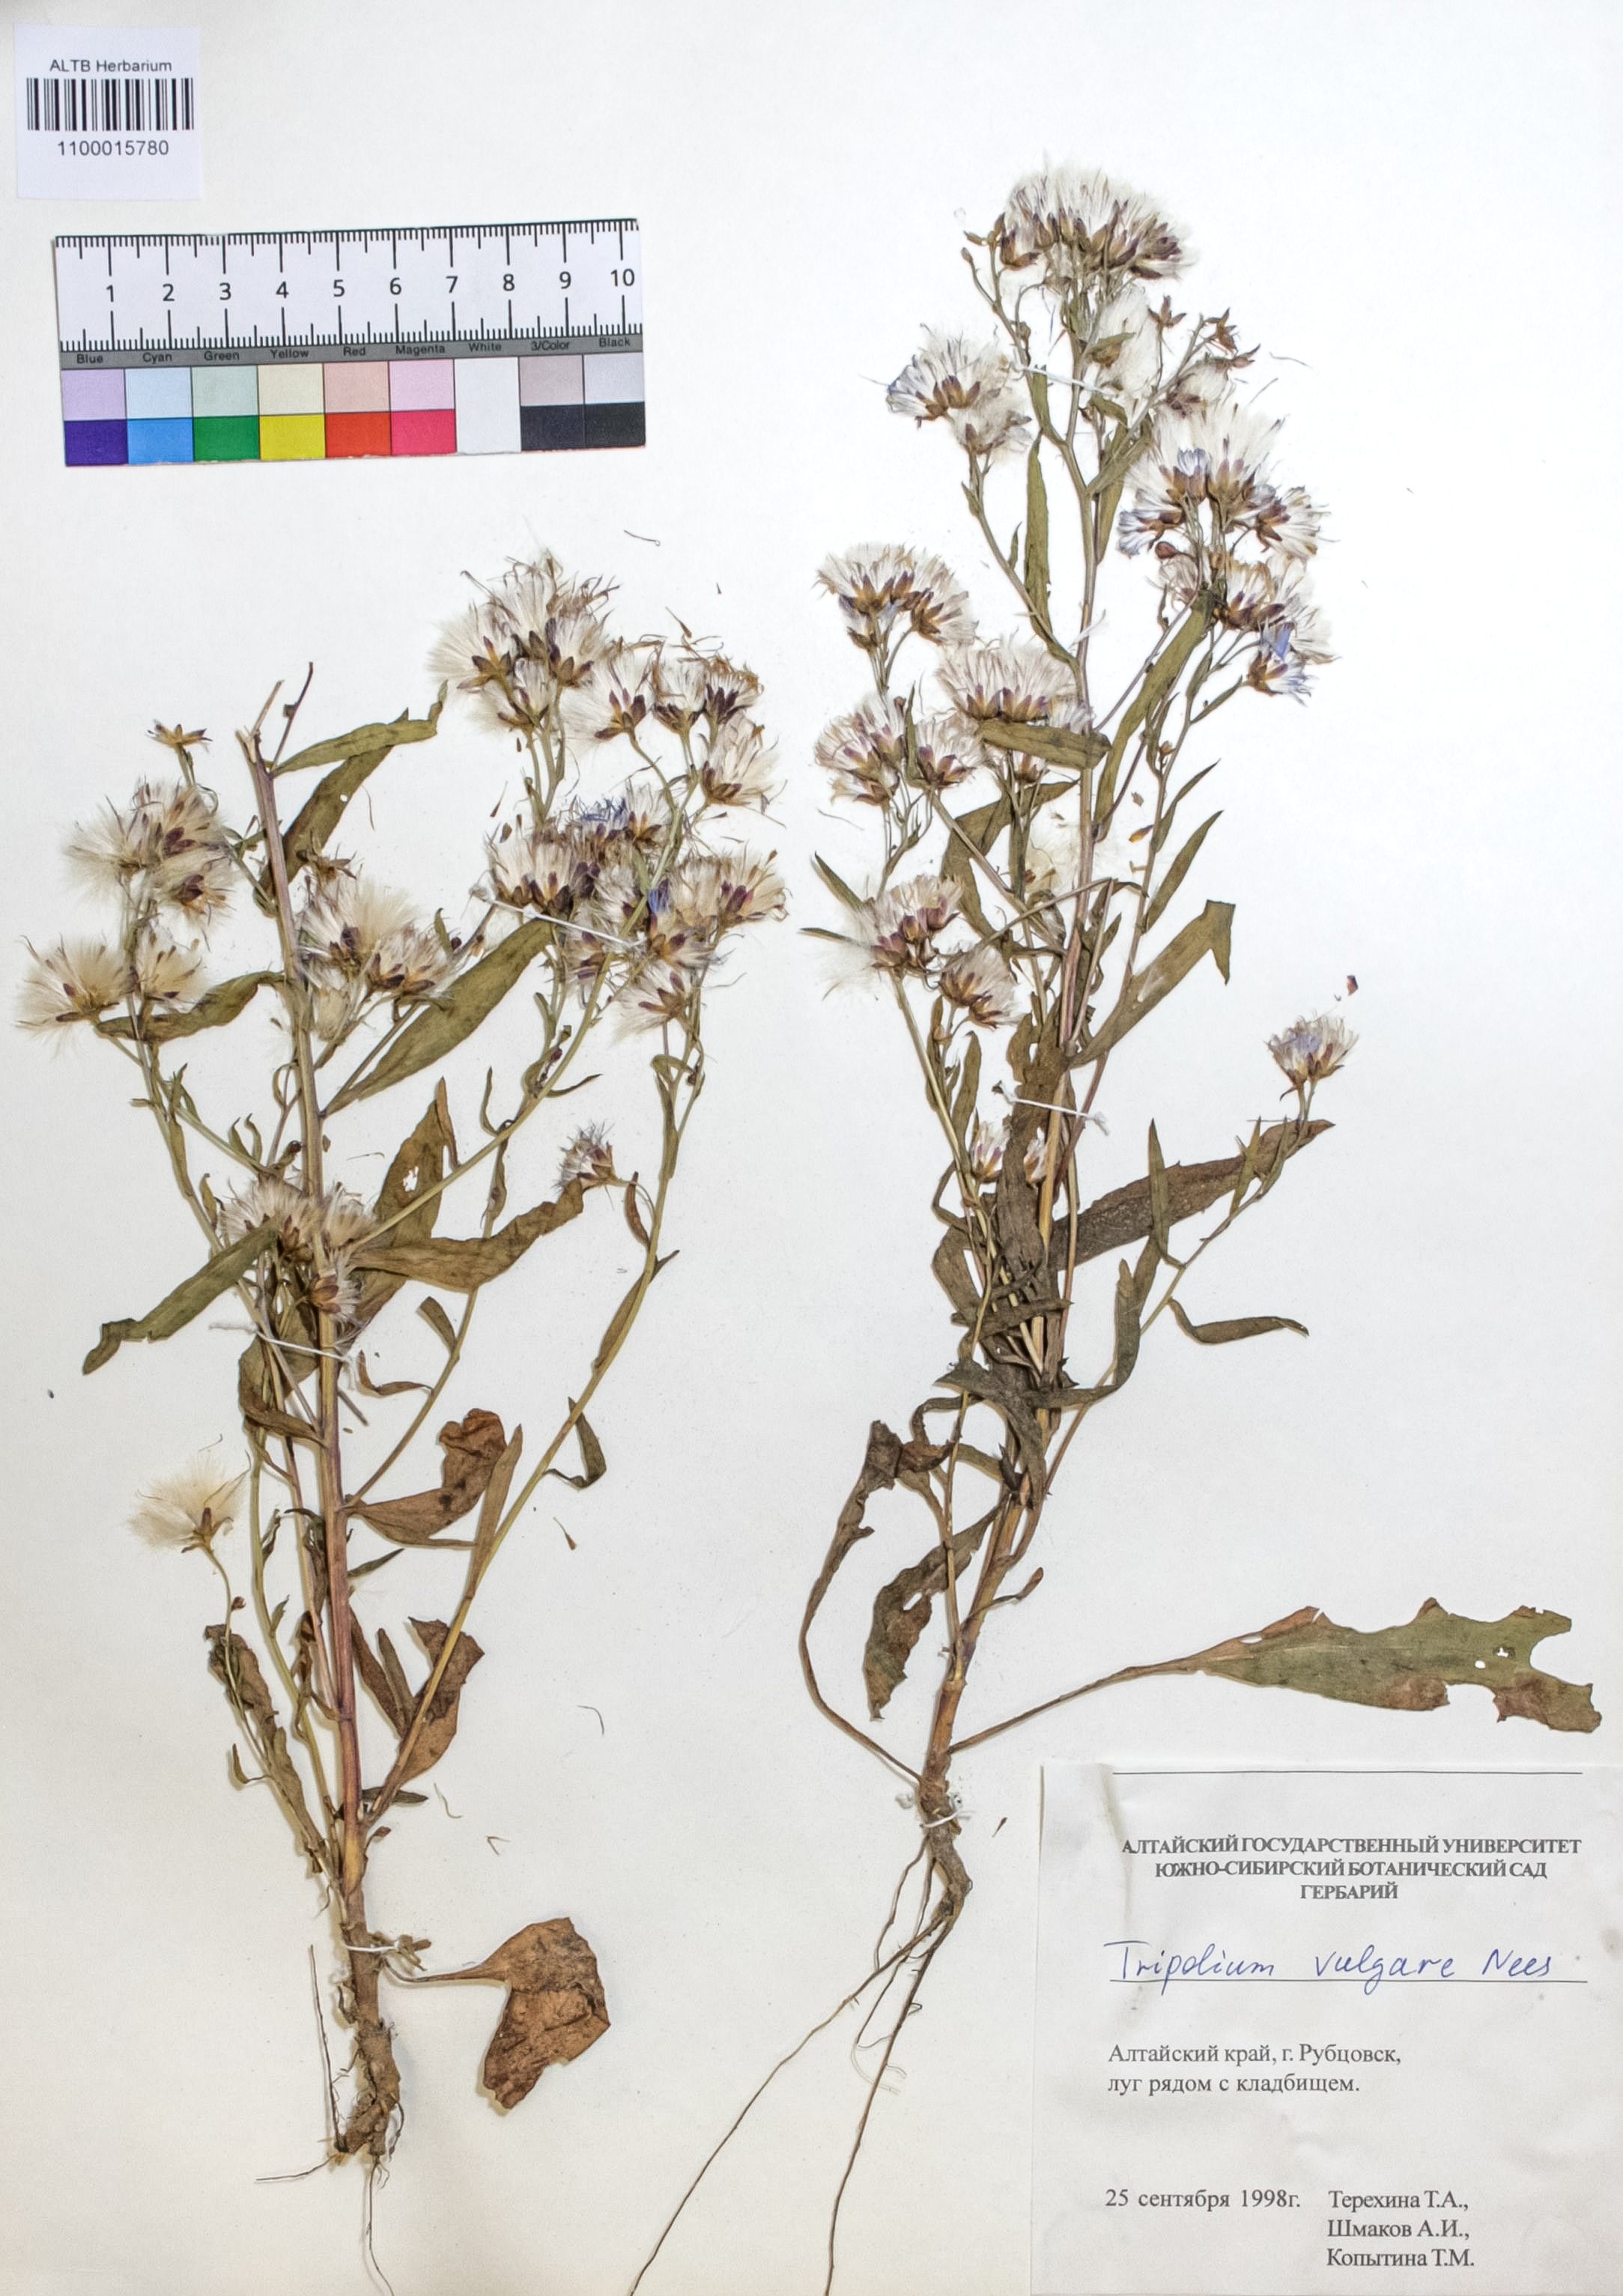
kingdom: Plantae
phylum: Tracheophyta
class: Magnoliopsida
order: Asterales
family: Asteraceae
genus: Tripolium
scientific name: Tripolium pannonicum
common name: Sea aster
